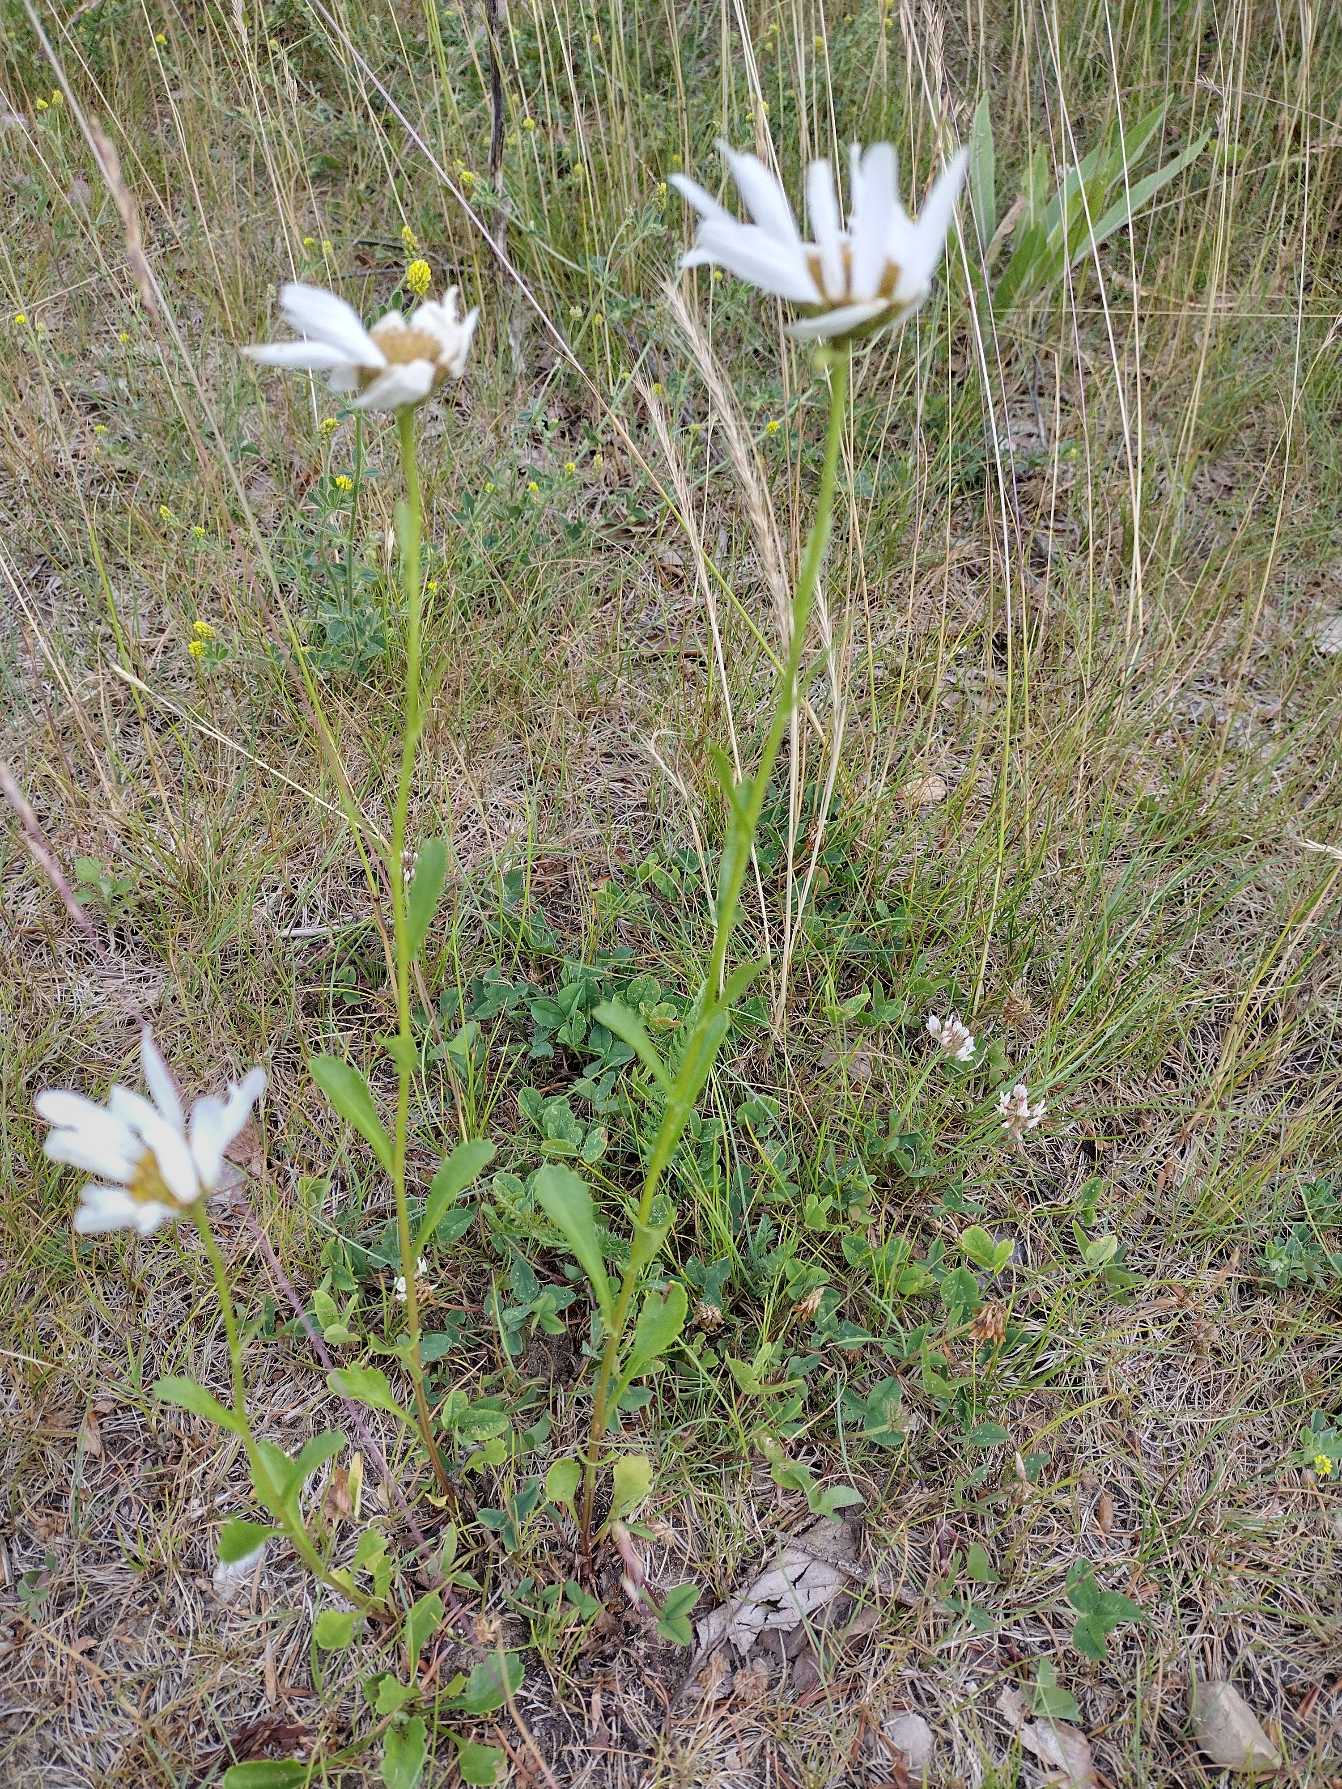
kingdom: Plantae
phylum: Tracheophyta
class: Magnoliopsida
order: Asterales
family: Asteraceae
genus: Leucanthemum
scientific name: Leucanthemum vulgare
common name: Hvid okseøje
